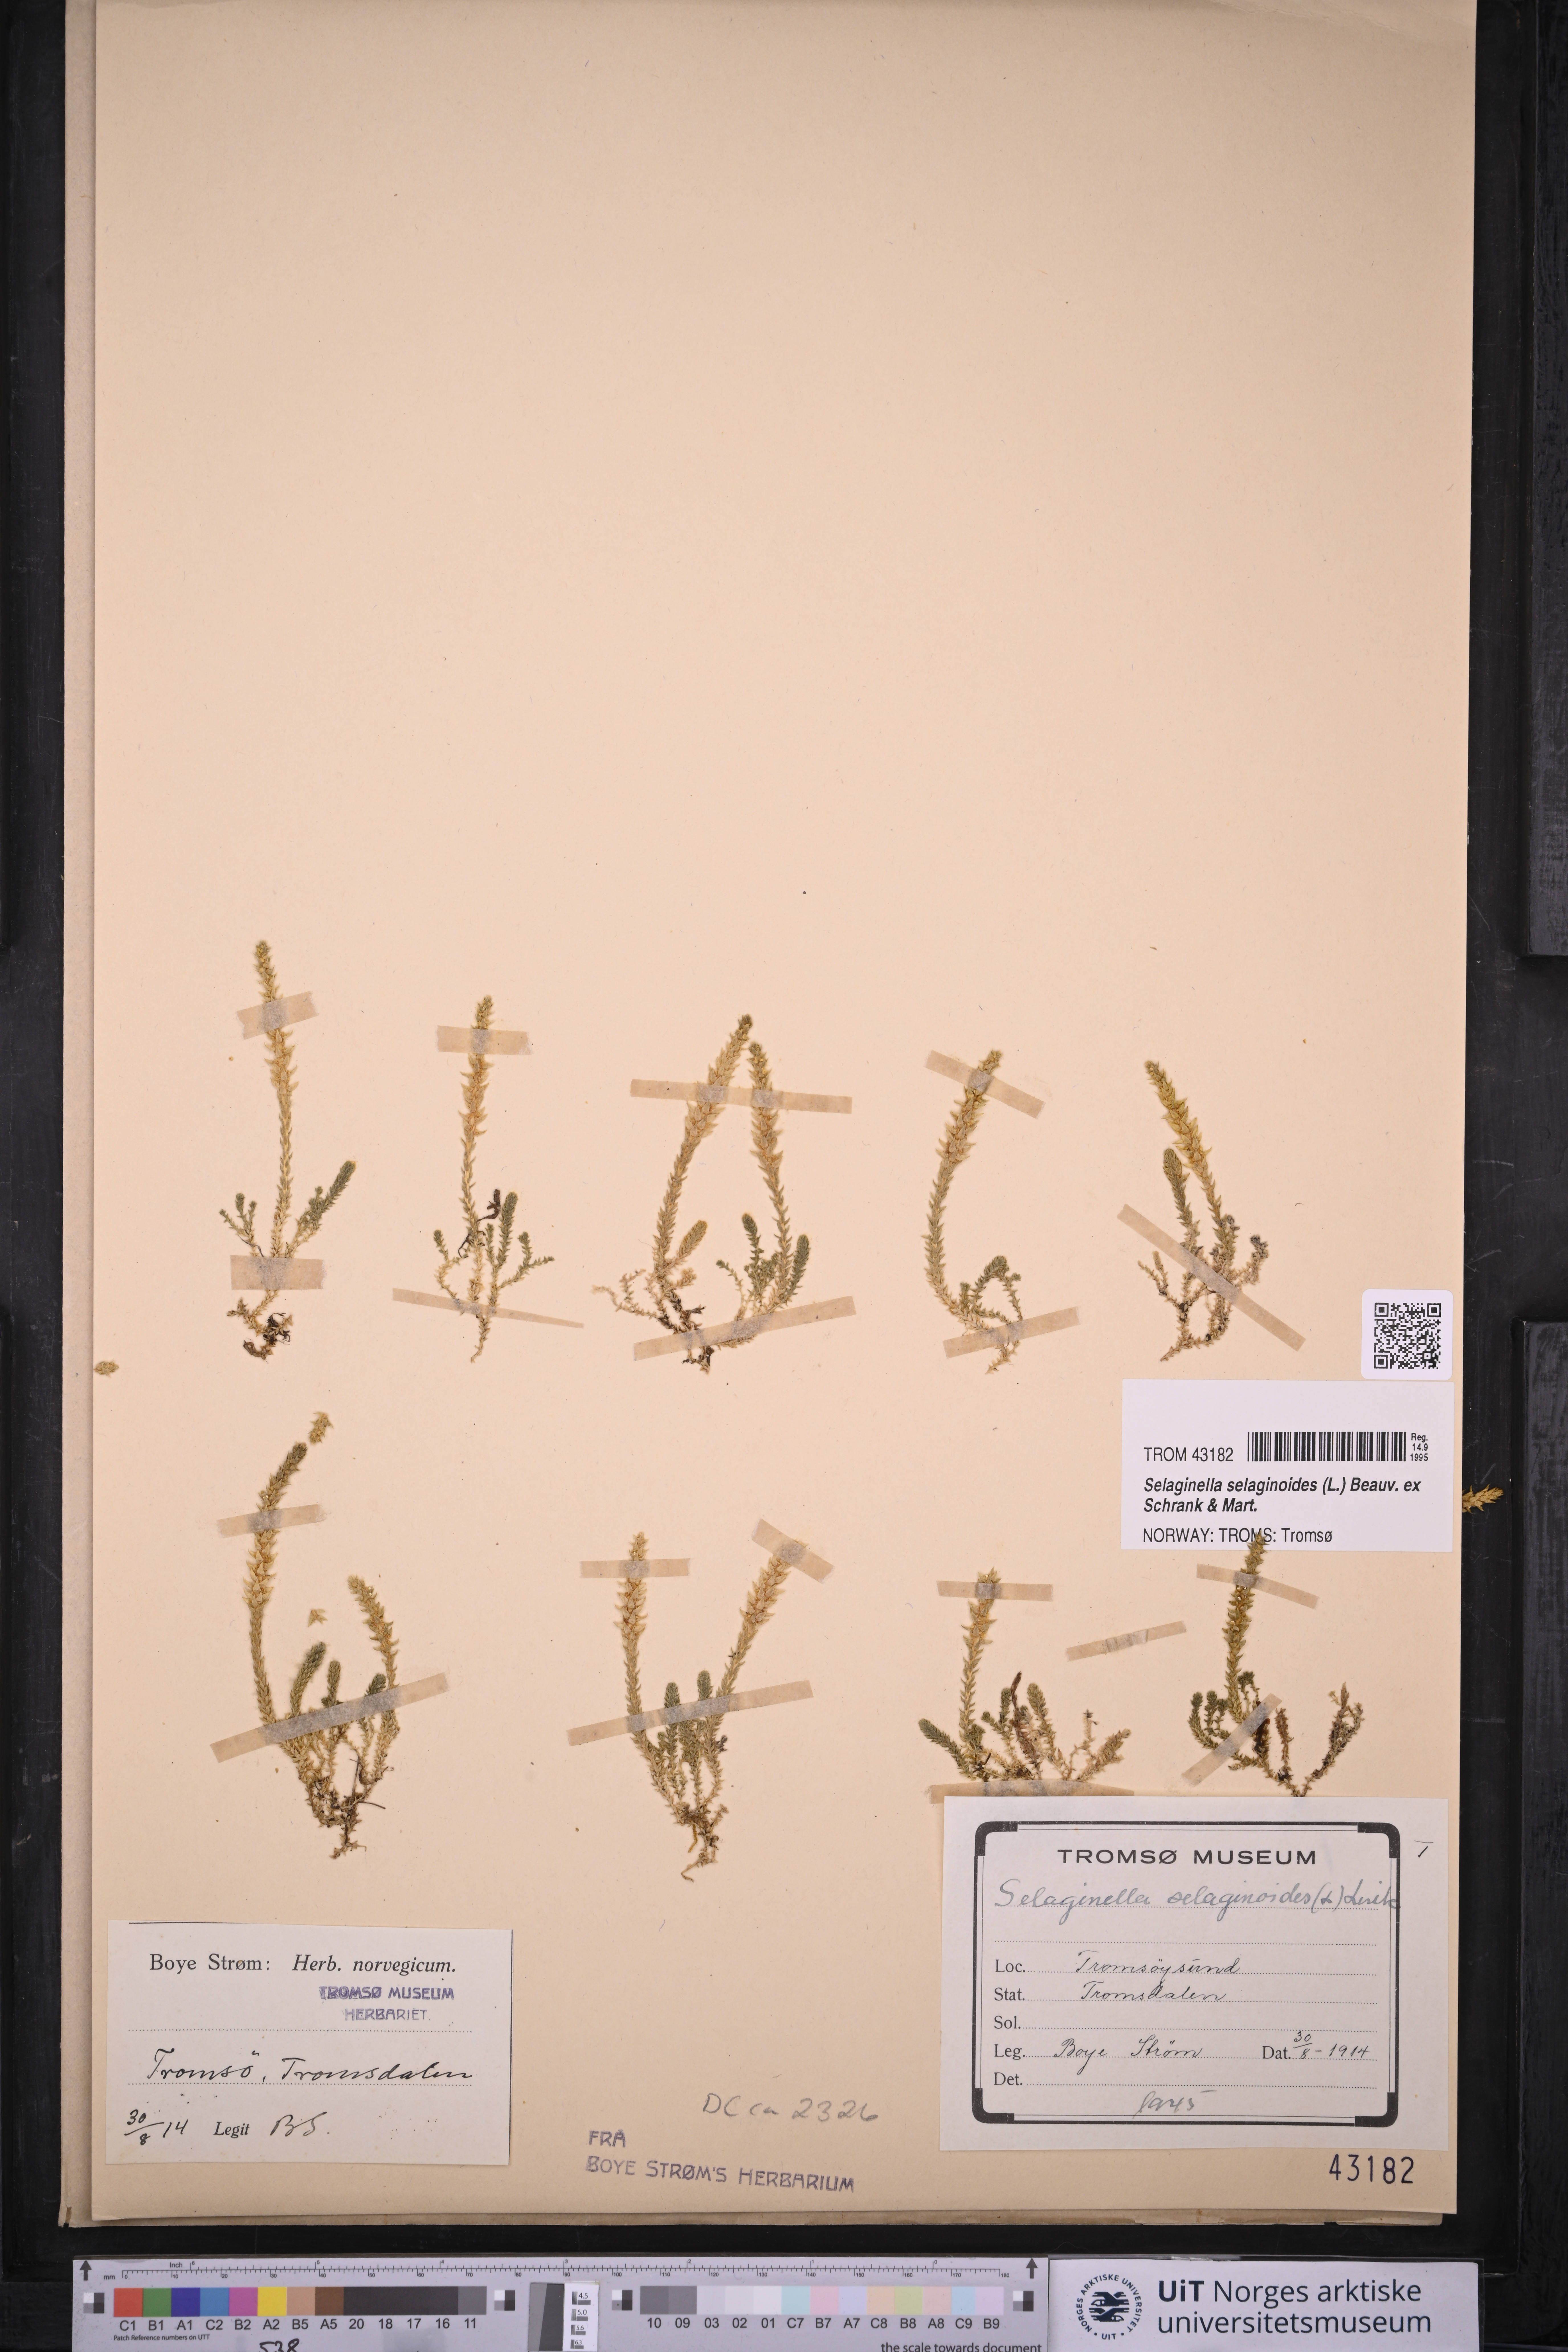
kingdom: Plantae
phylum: Tracheophyta
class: Lycopodiopsida
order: Selaginellales
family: Selaginellaceae
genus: Selaginella
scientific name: Selaginella selaginoides
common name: Prickly mountain-moss
